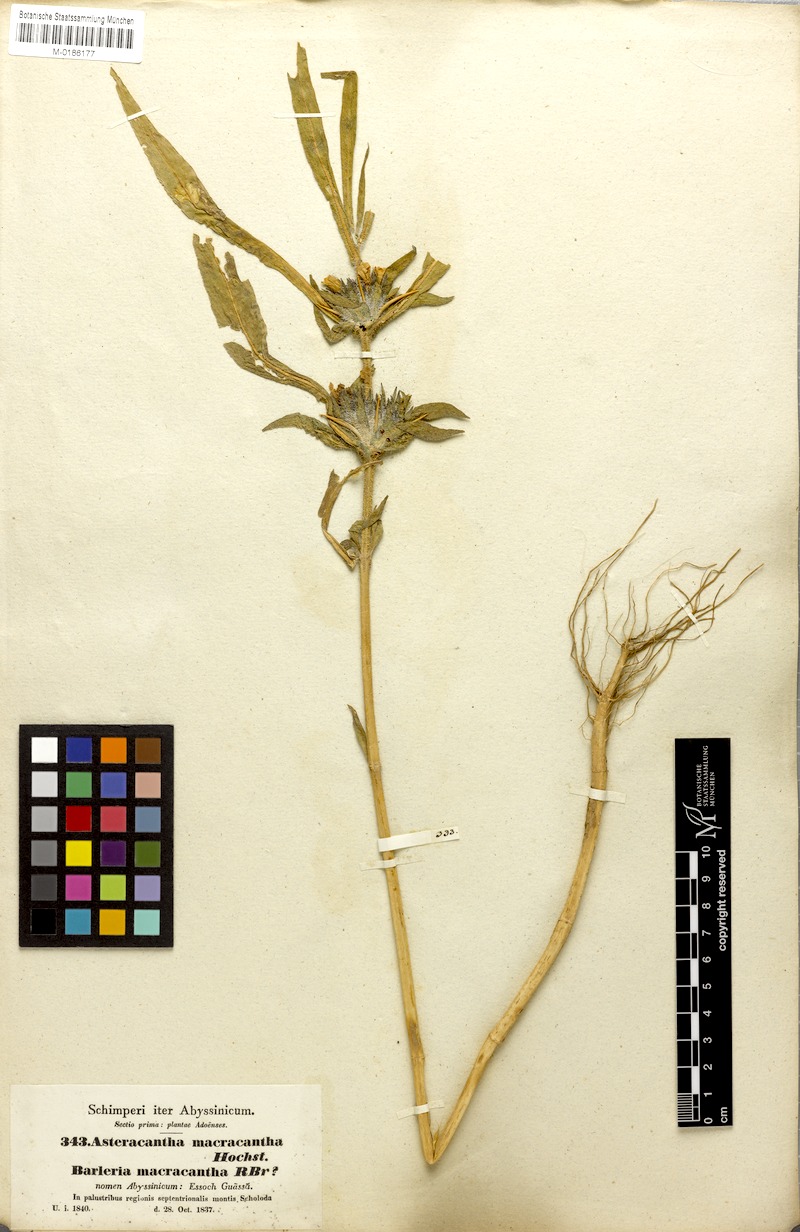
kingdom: Plantae
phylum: Tracheophyta
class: Magnoliopsida
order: Lamiales
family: Acanthaceae
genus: Hygrophila
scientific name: Hygrophila auriculata
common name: Hygrophila
